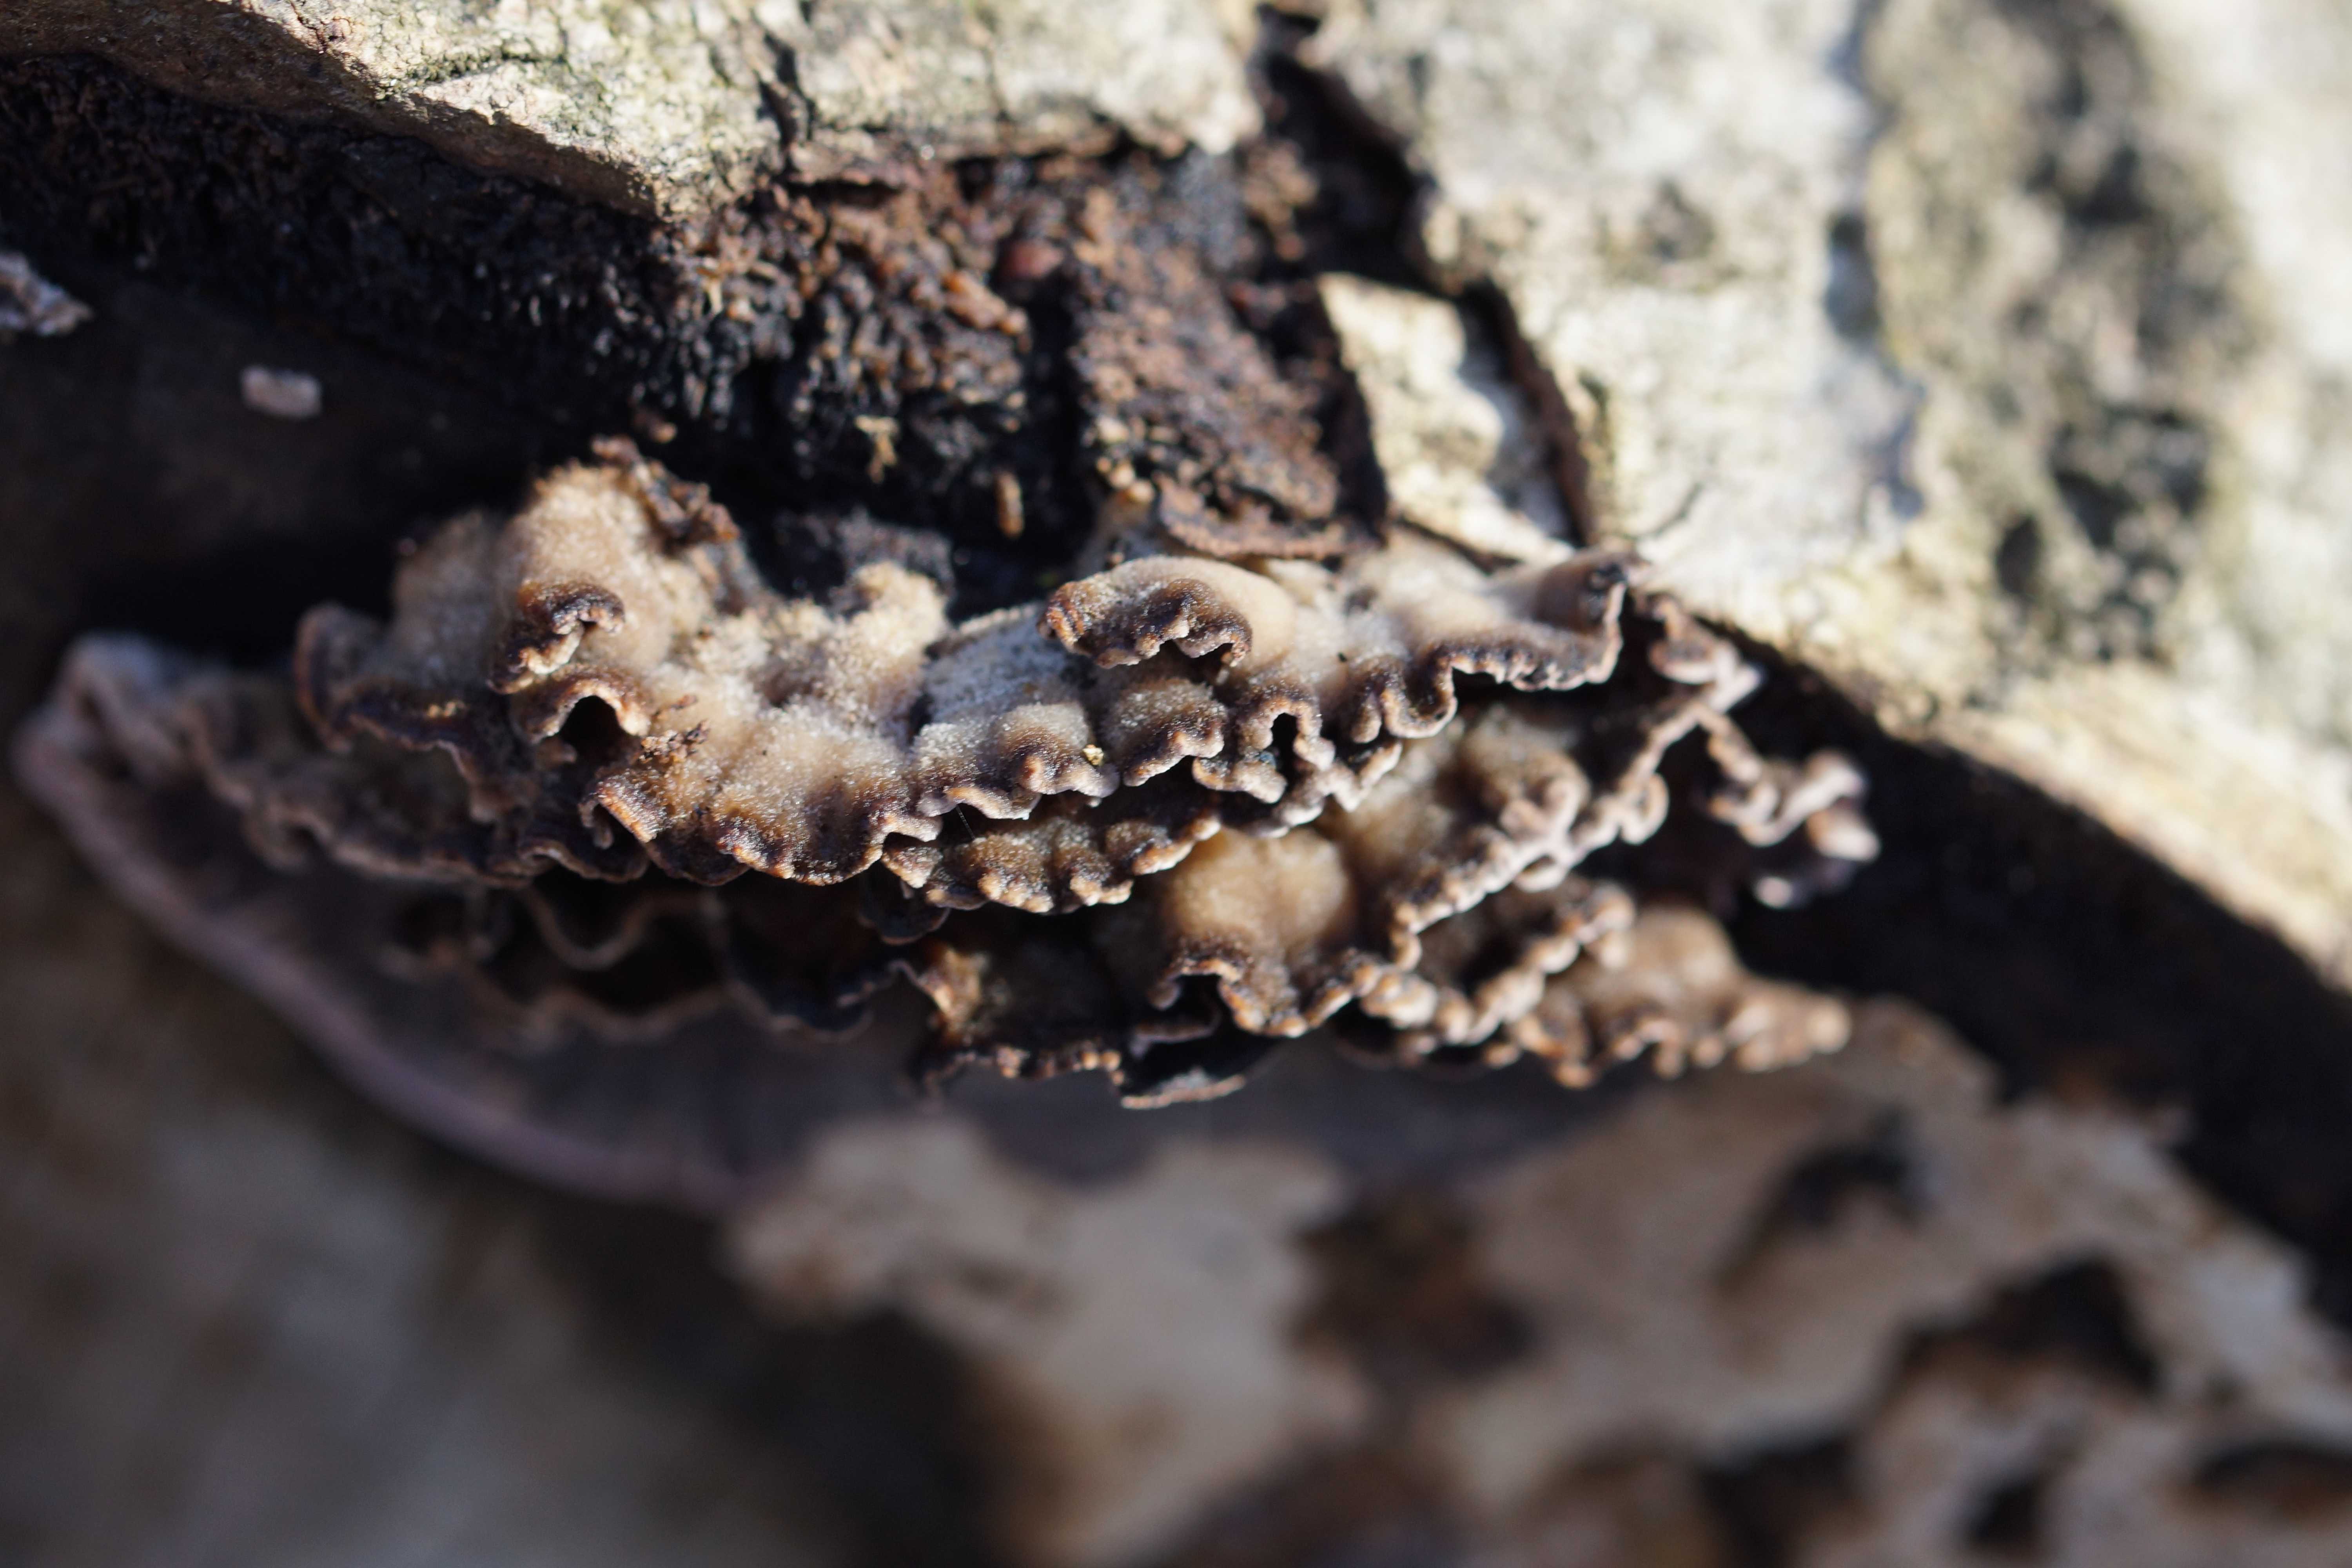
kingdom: Fungi
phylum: Basidiomycota
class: Agaricomycetes
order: Agaricales
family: Cyphellaceae
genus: Chondrostereum
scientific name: Chondrostereum purpureum
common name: purpurlædersvamp
